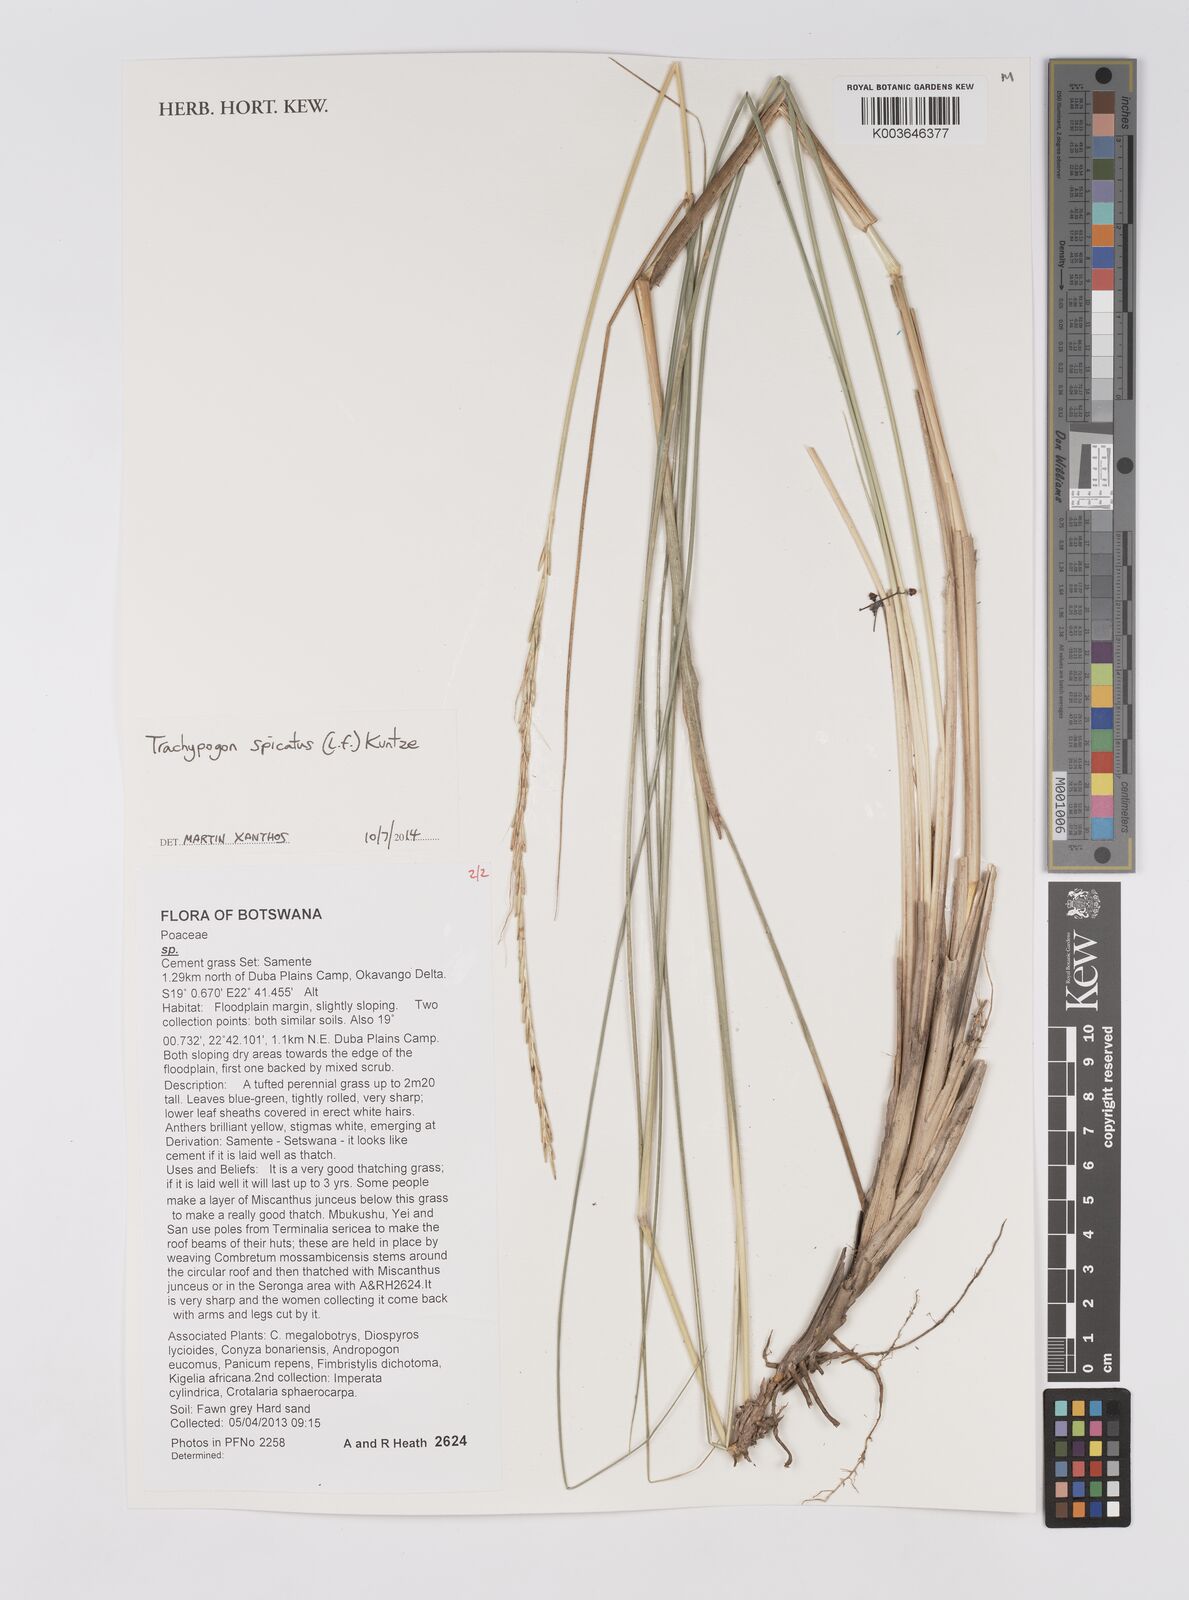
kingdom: Plantae
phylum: Tracheophyta
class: Liliopsida
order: Poales
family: Poaceae
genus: Trachypogon
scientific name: Trachypogon spicatus
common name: Crinkle-awn
